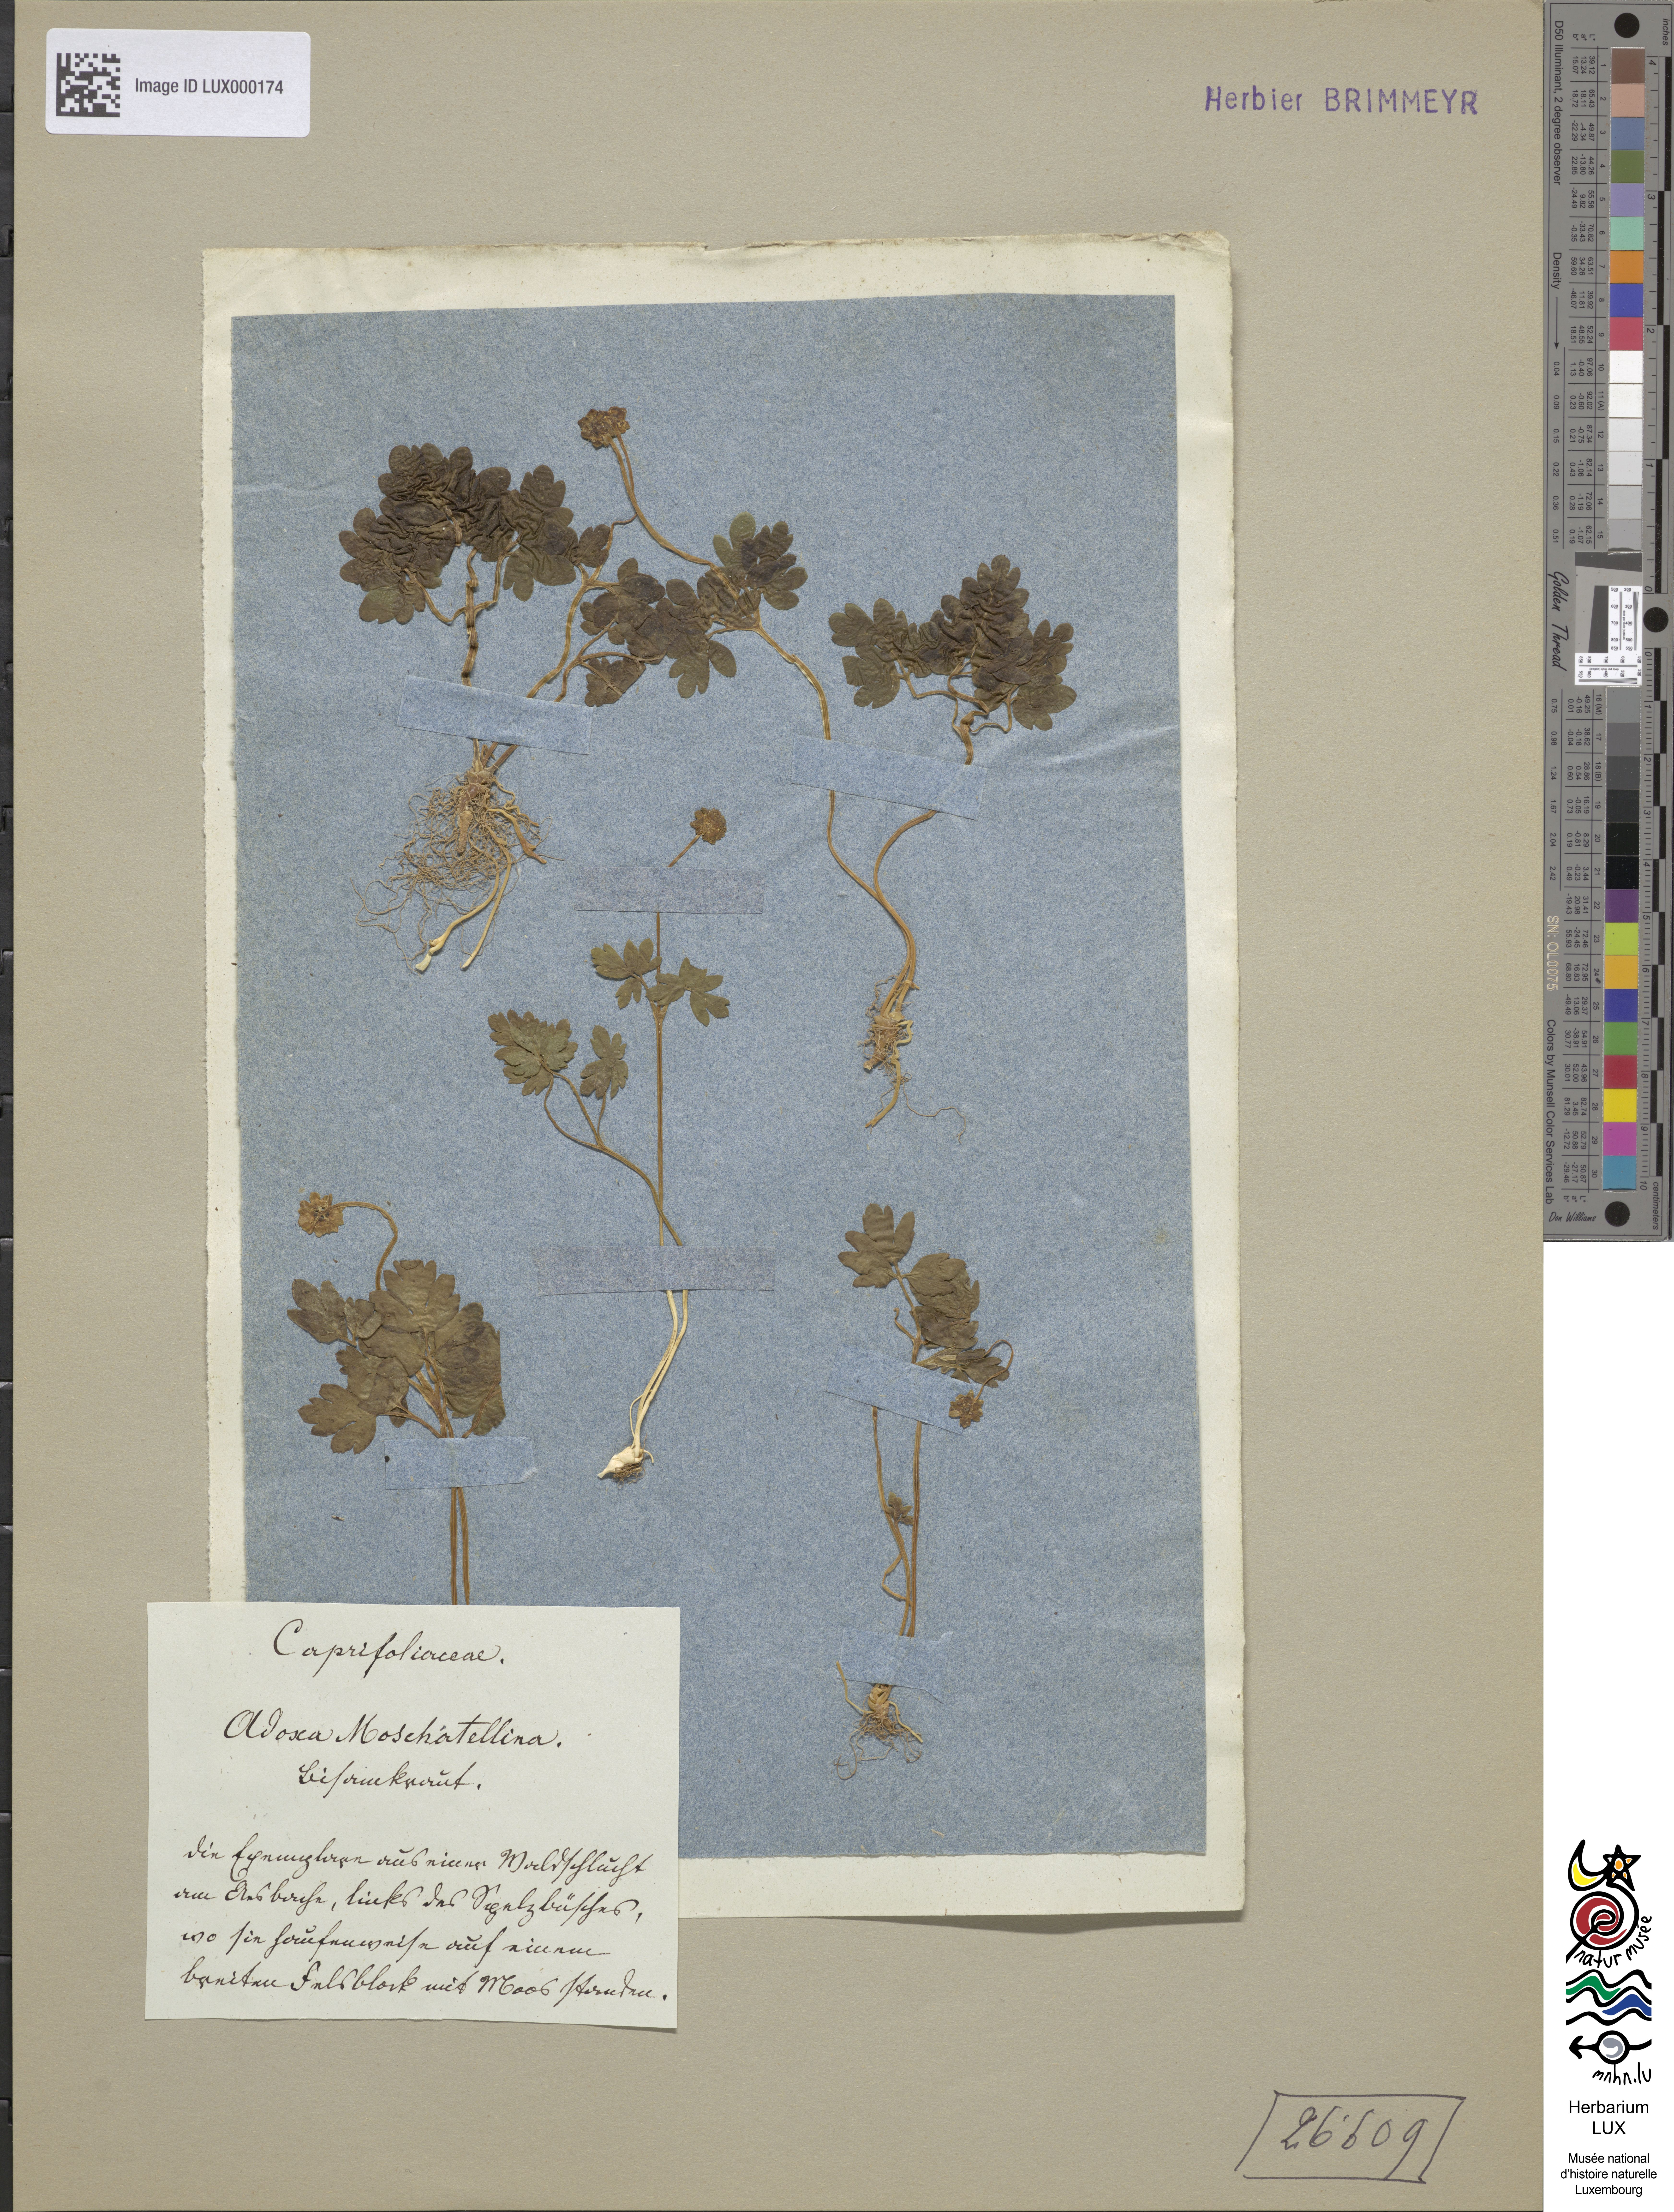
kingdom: Plantae
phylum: Tracheophyta
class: Magnoliopsida
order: Dipsacales
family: Viburnaceae
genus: Adoxa
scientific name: Adoxa moschatellina
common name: Moschatel
